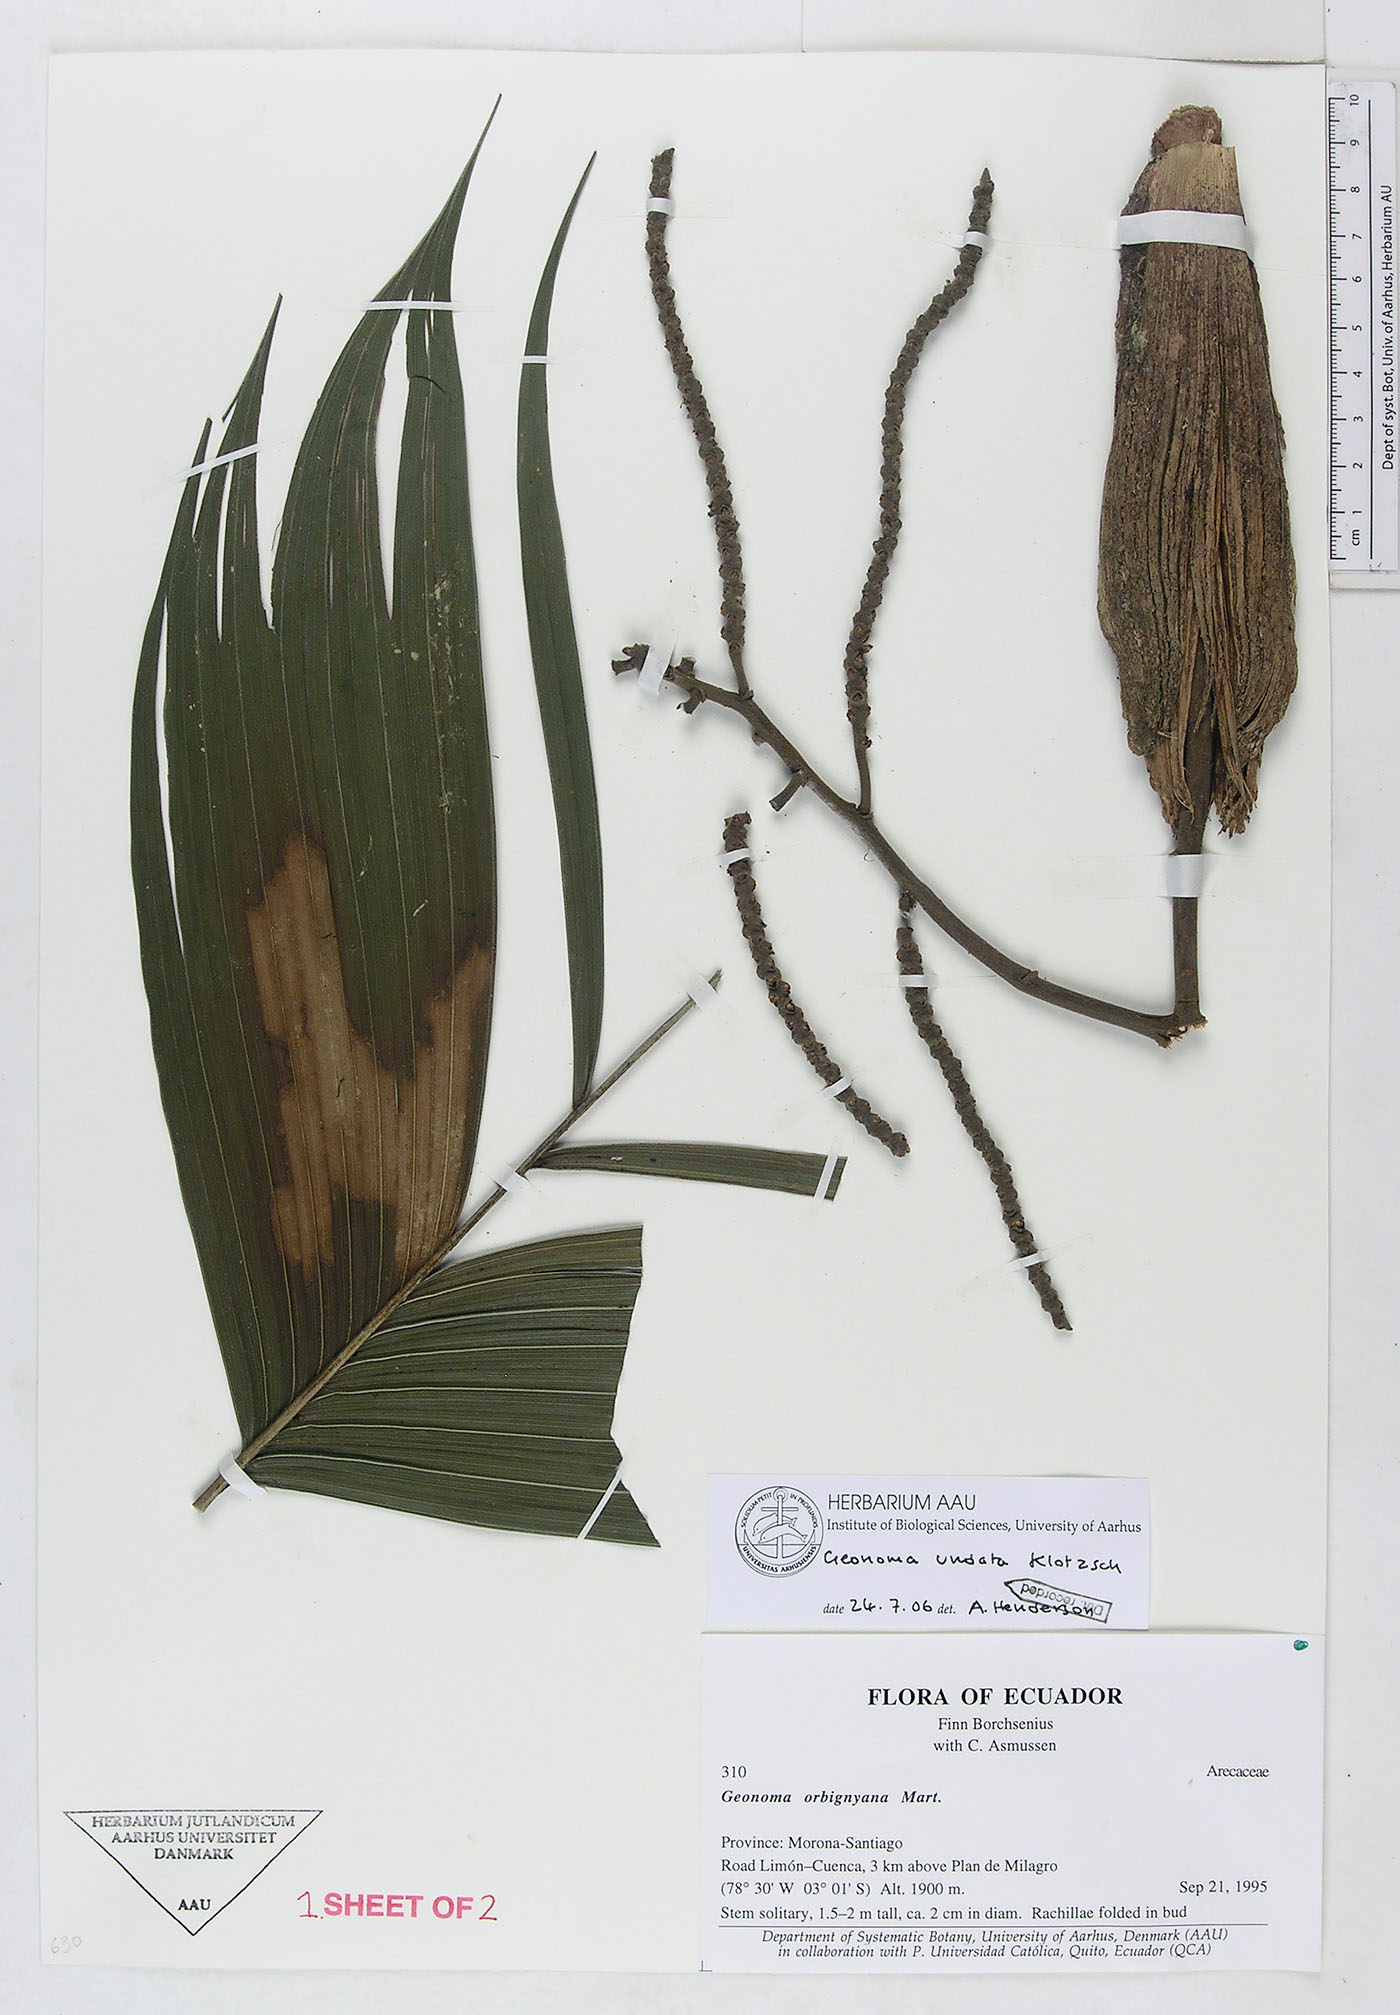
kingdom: Plantae
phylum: Tracheophyta
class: Liliopsida
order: Arecales
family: Arecaceae
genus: Geonoma
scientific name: Geonoma undata
